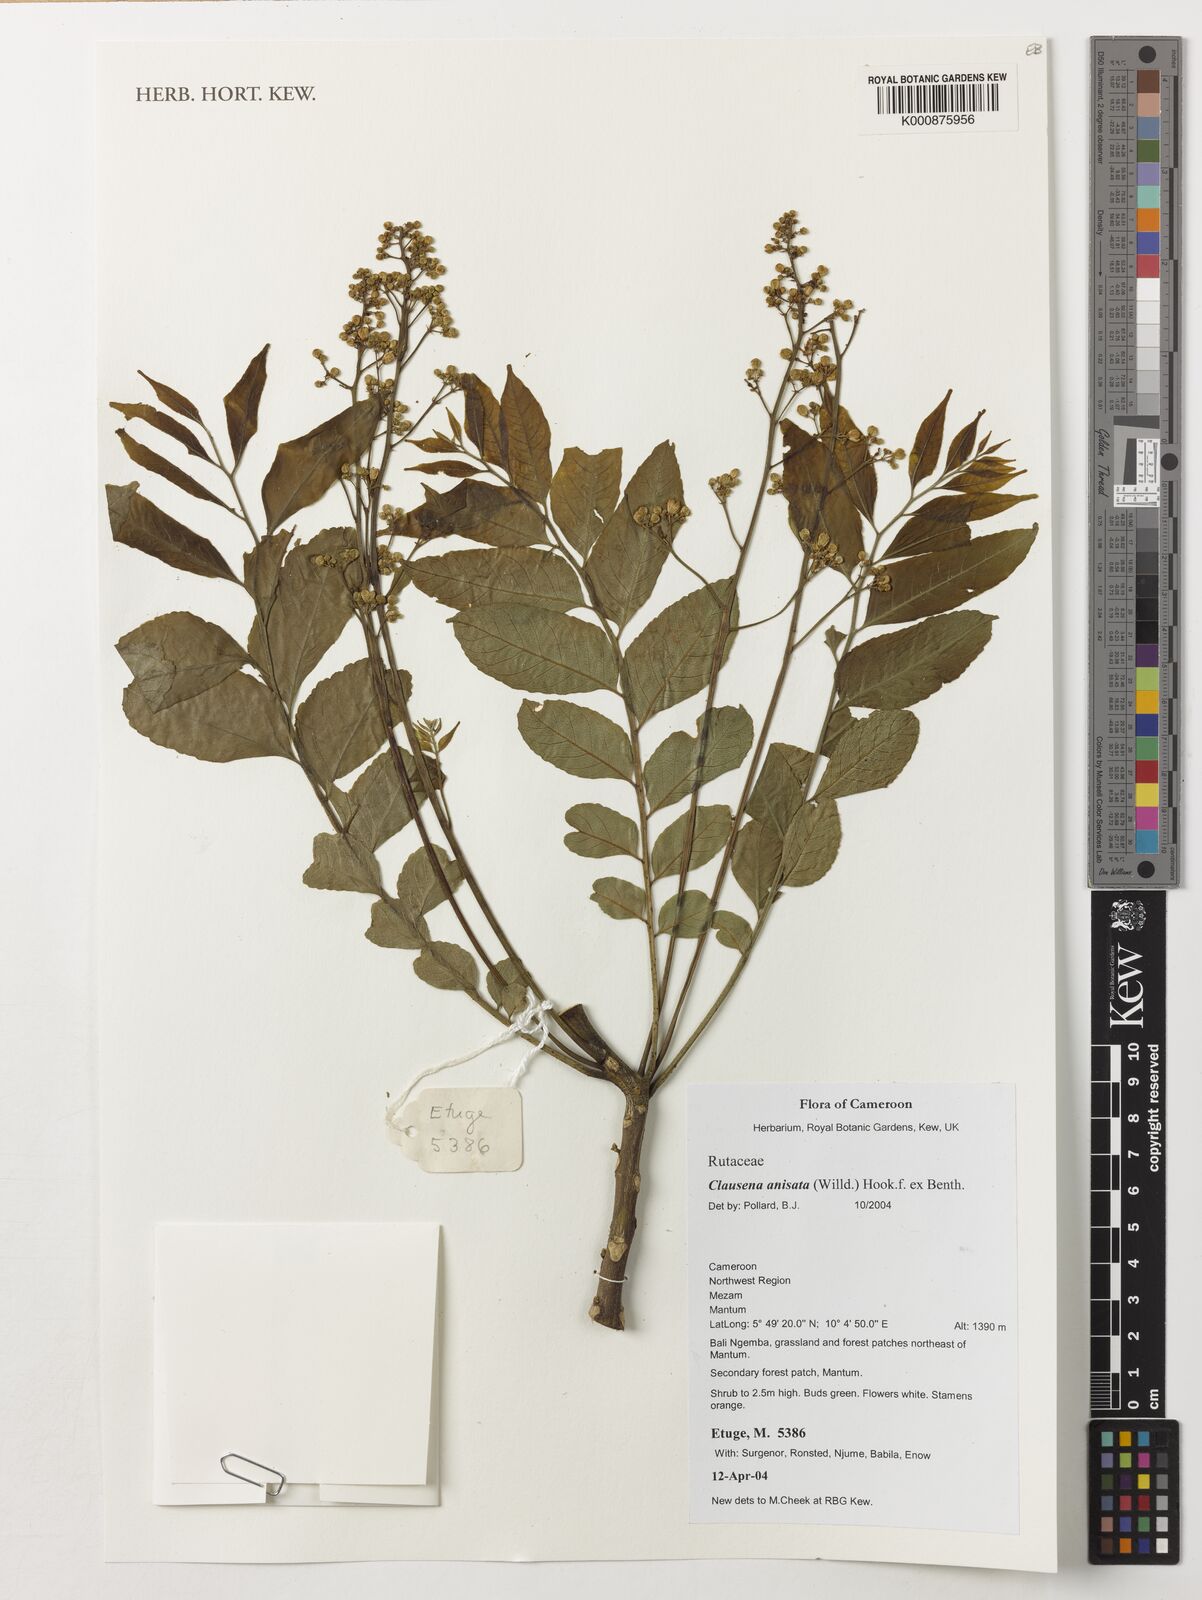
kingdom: Plantae
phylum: Tracheophyta
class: Magnoliopsida
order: Sapindales
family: Rutaceae
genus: Clausena
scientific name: Clausena anisata
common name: Horsewood
